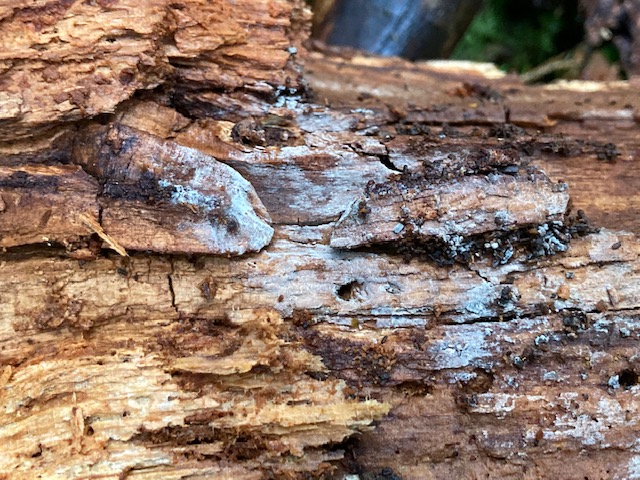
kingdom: Fungi
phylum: Basidiomycota
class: Agaricomycetes
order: Hymenochaetales
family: Hyphodontiaceae
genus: Hyphodontia
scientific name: Hyphodontia pallidula
